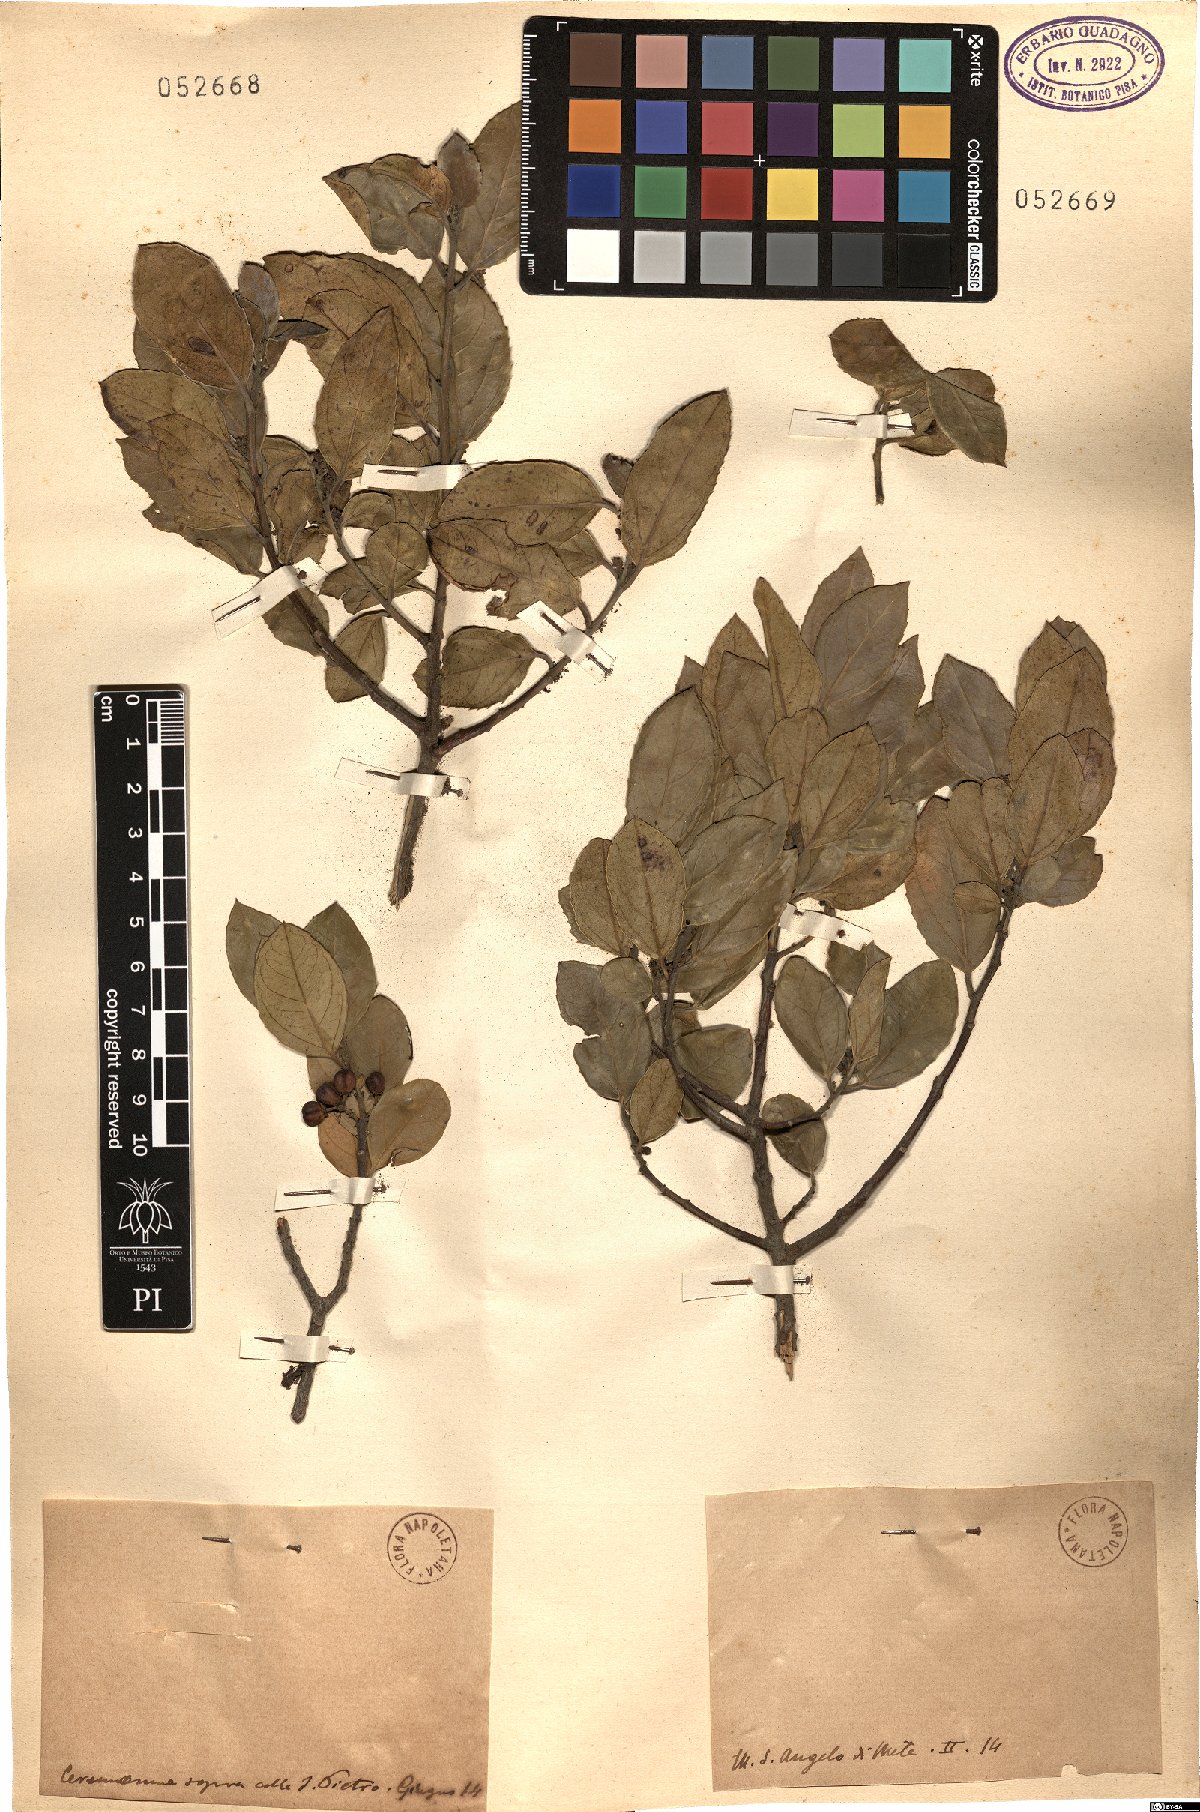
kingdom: Plantae
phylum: Tracheophyta
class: Magnoliopsida
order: Rosales
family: Rhamnaceae
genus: Rhamnus
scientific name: Rhamnus
